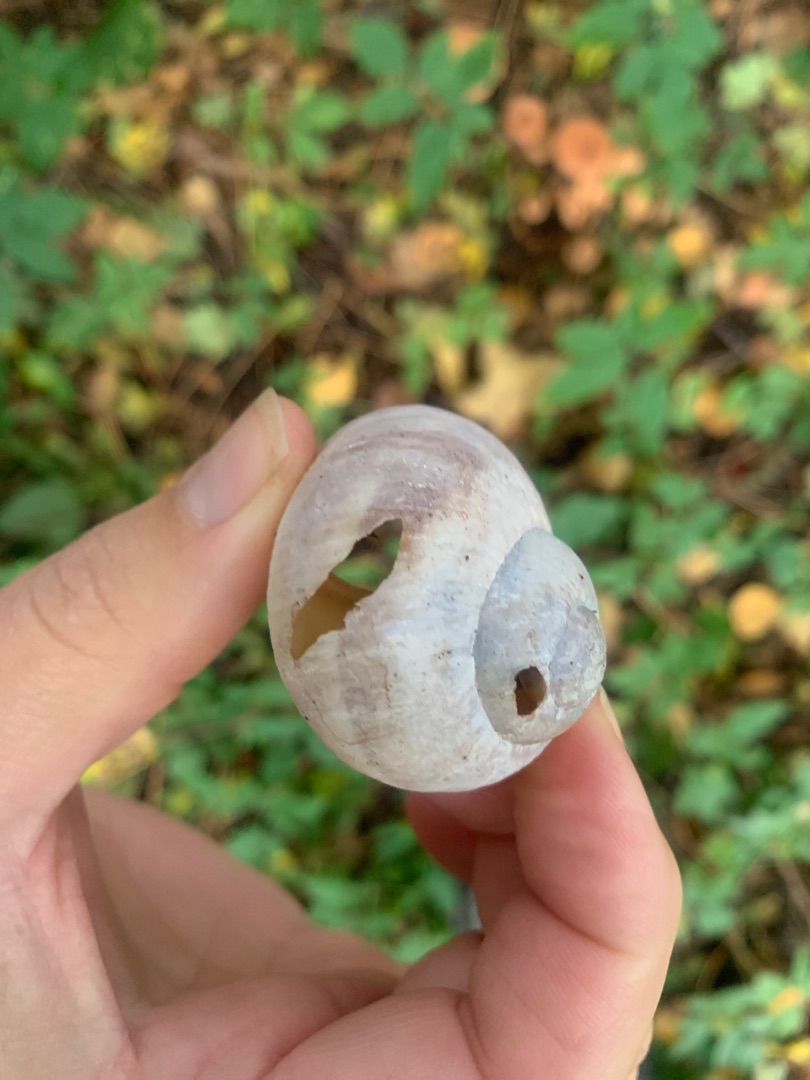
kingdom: Animalia
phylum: Mollusca
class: Gastropoda
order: Stylommatophora
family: Helicidae
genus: Helix
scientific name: Helix pomatia
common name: Vinbjergsnegl
